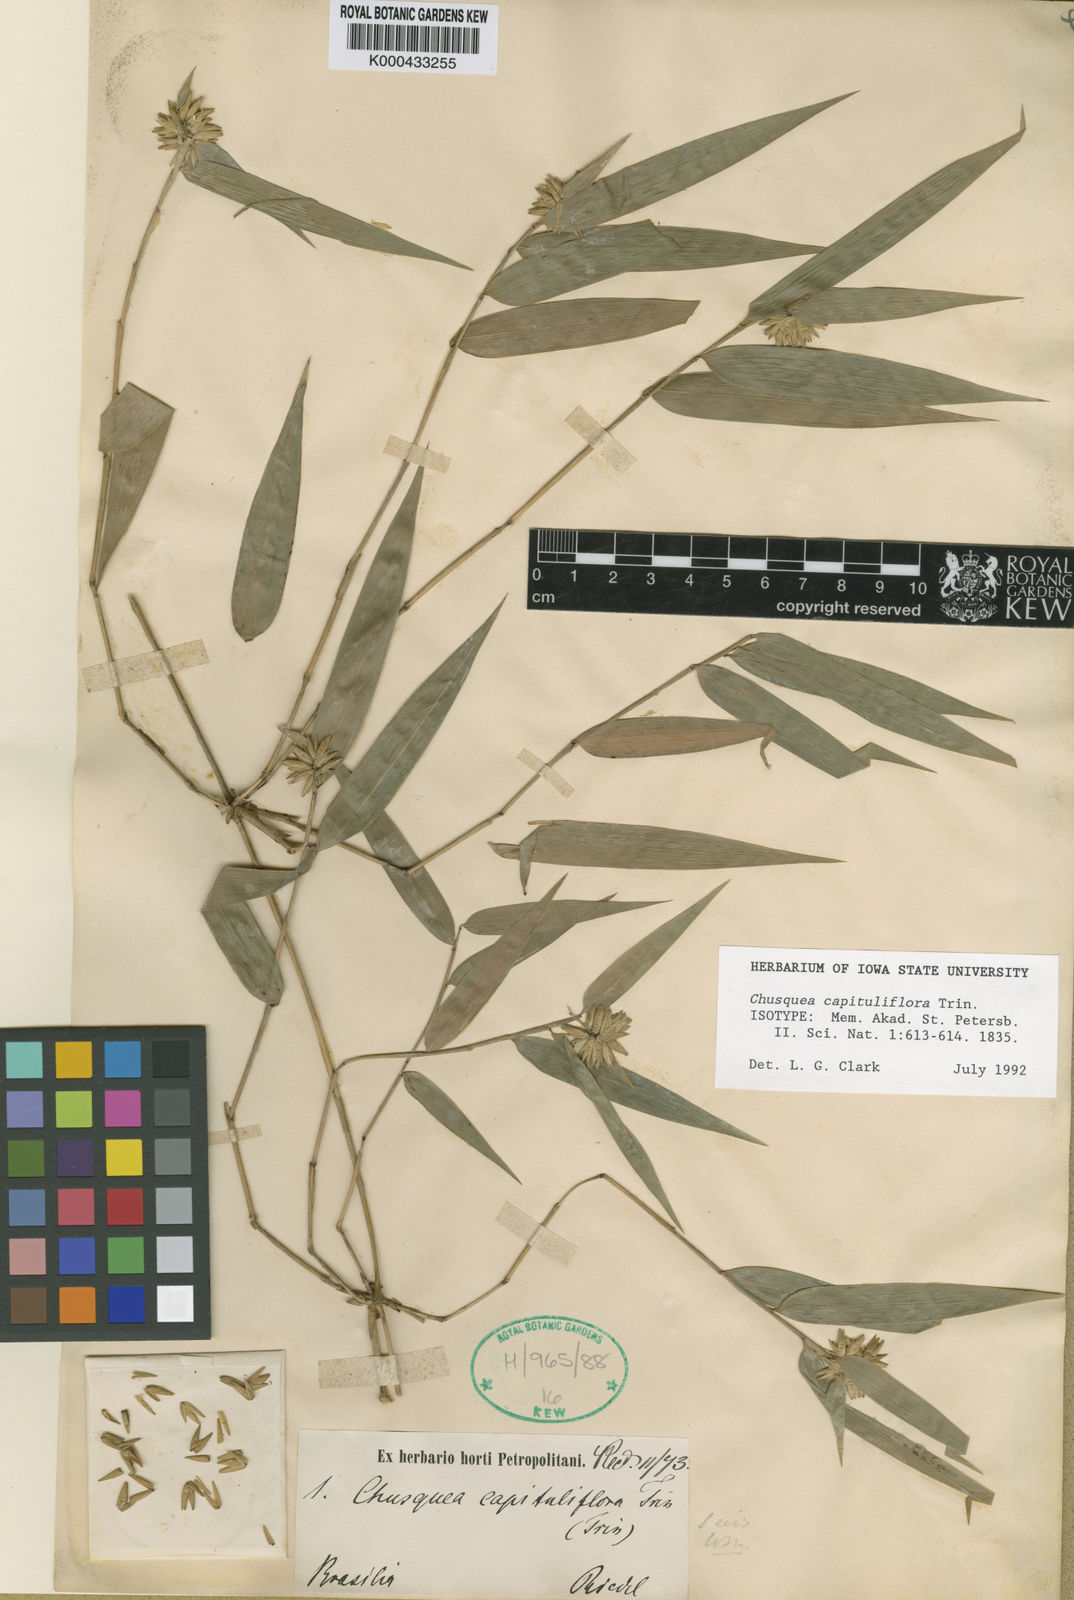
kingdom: Plantae
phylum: Tracheophyta
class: Liliopsida
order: Poales
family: Poaceae
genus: Chusquea
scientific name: Chusquea capituliflora
